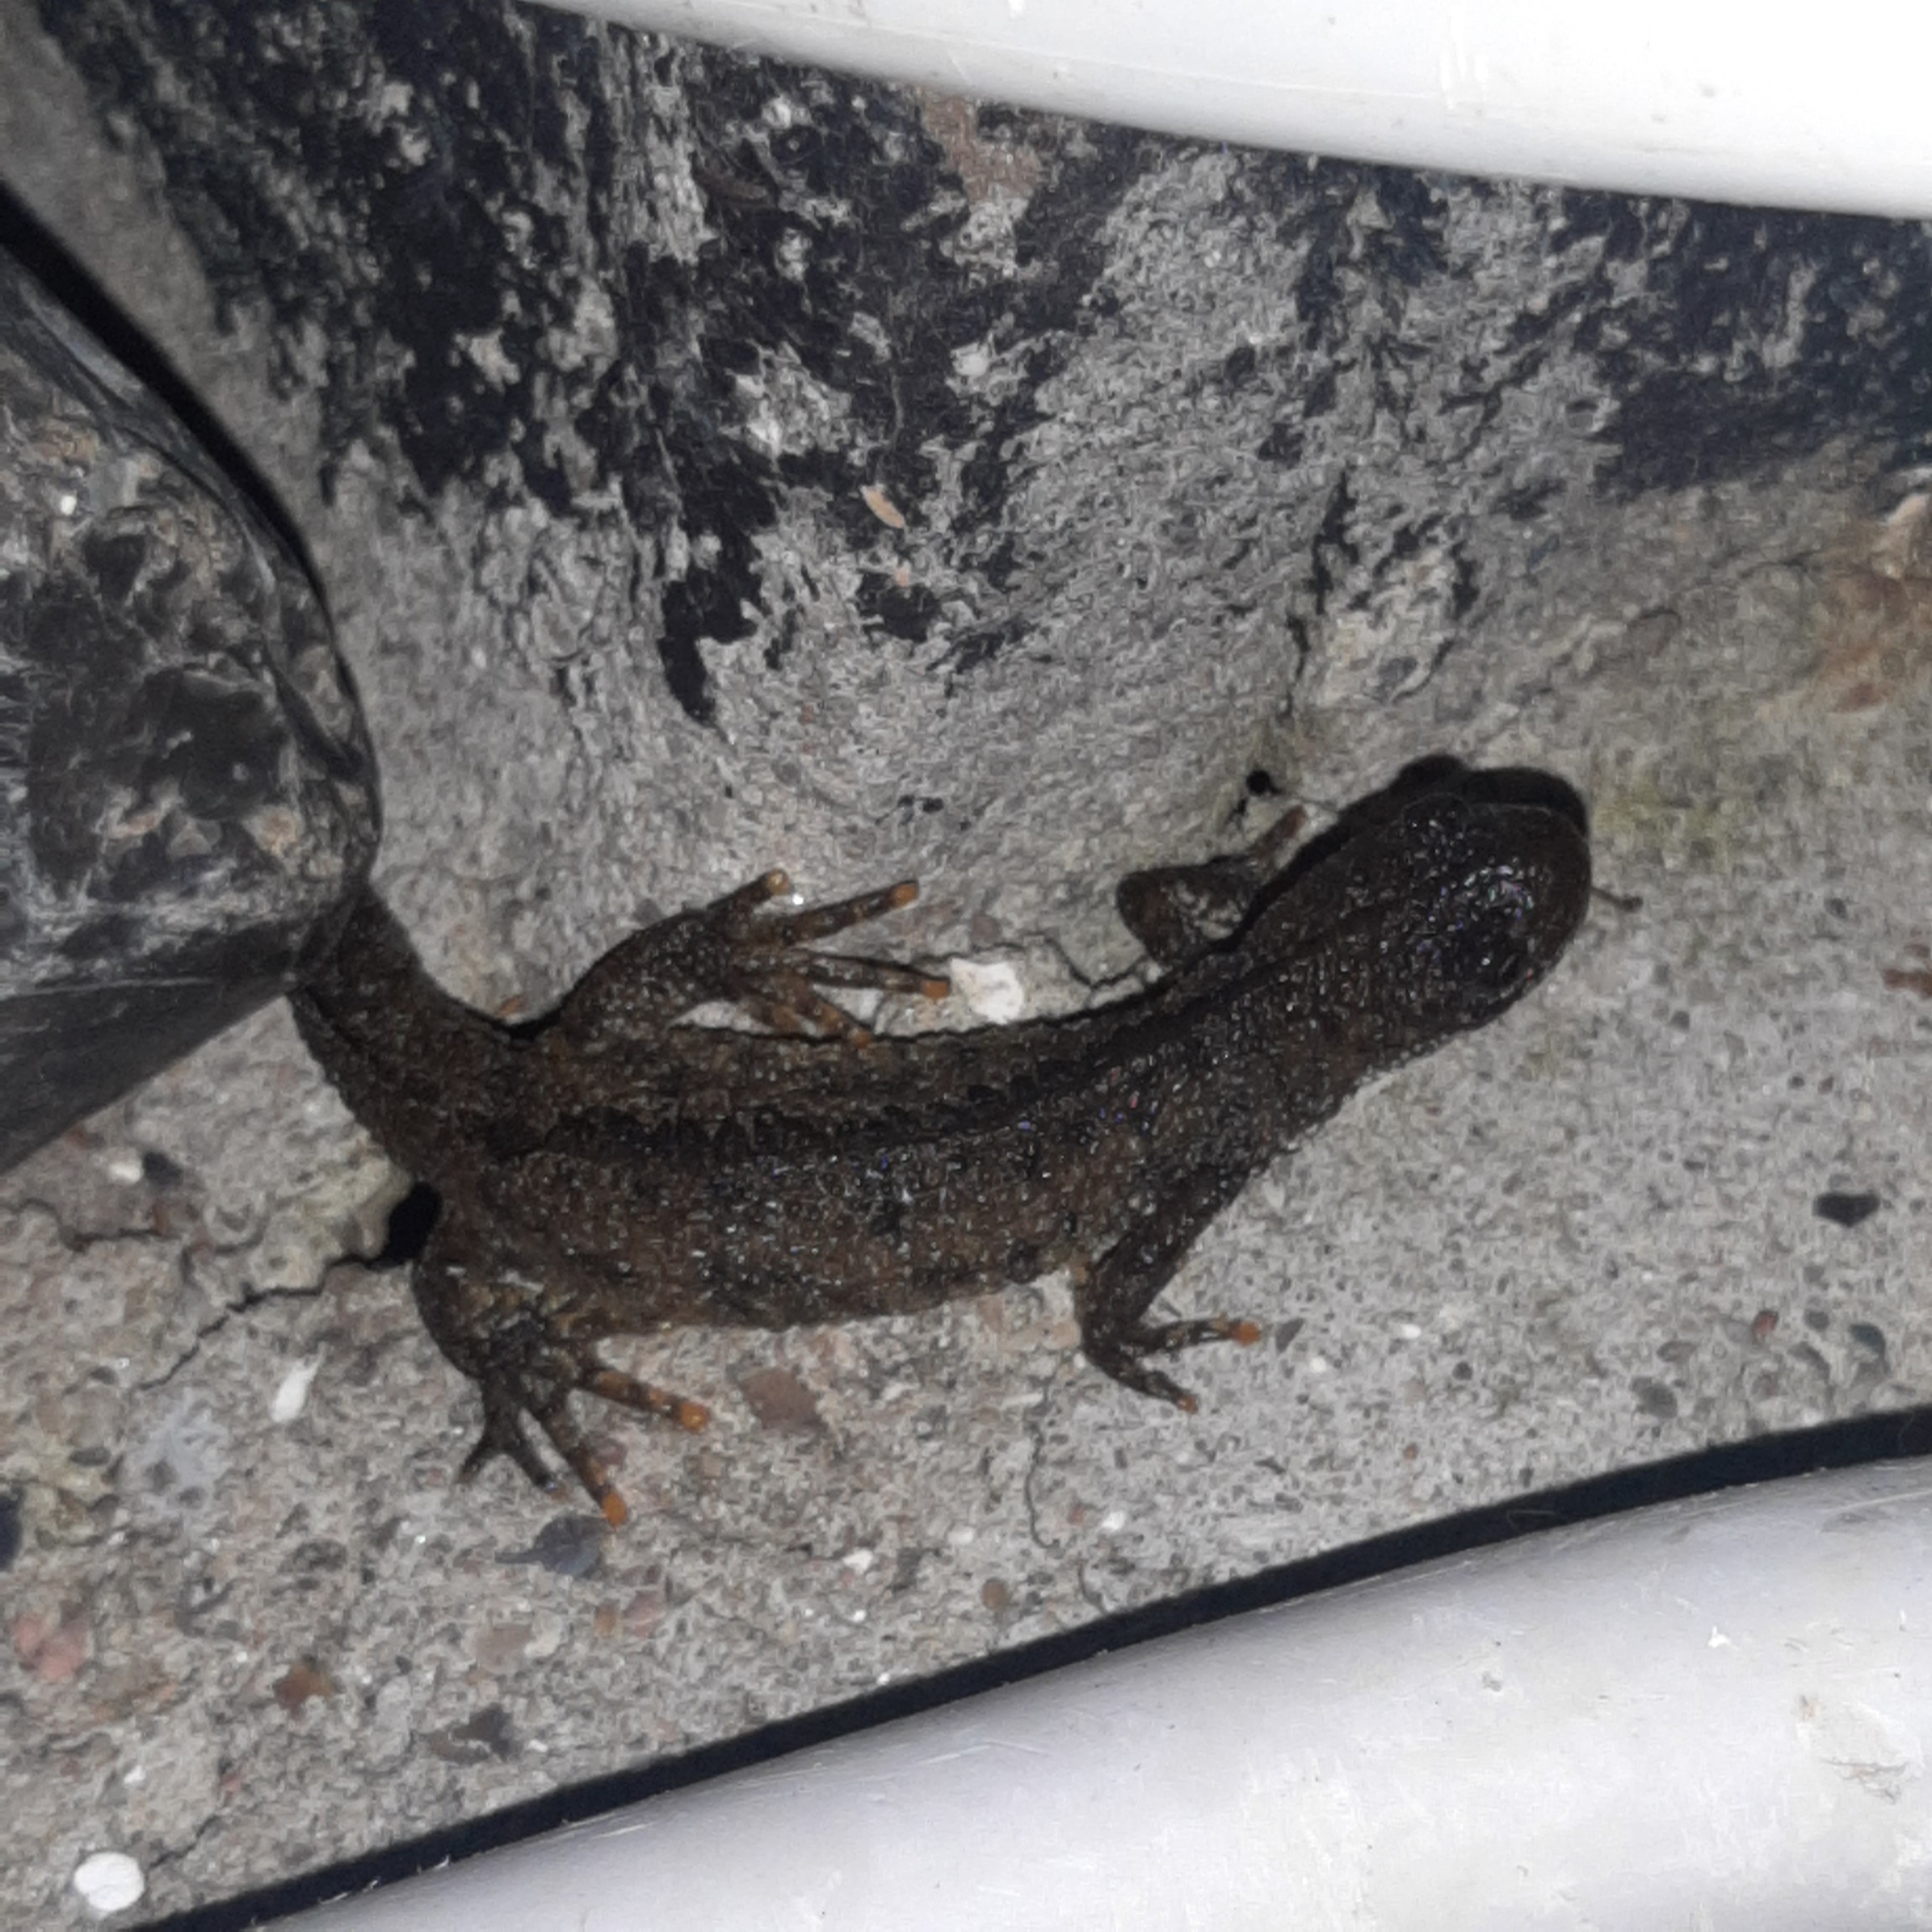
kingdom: Animalia
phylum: Chordata
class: Amphibia
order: Caudata
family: Salamandridae
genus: Triturus
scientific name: Triturus cristatus
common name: Stor vandsalamander
